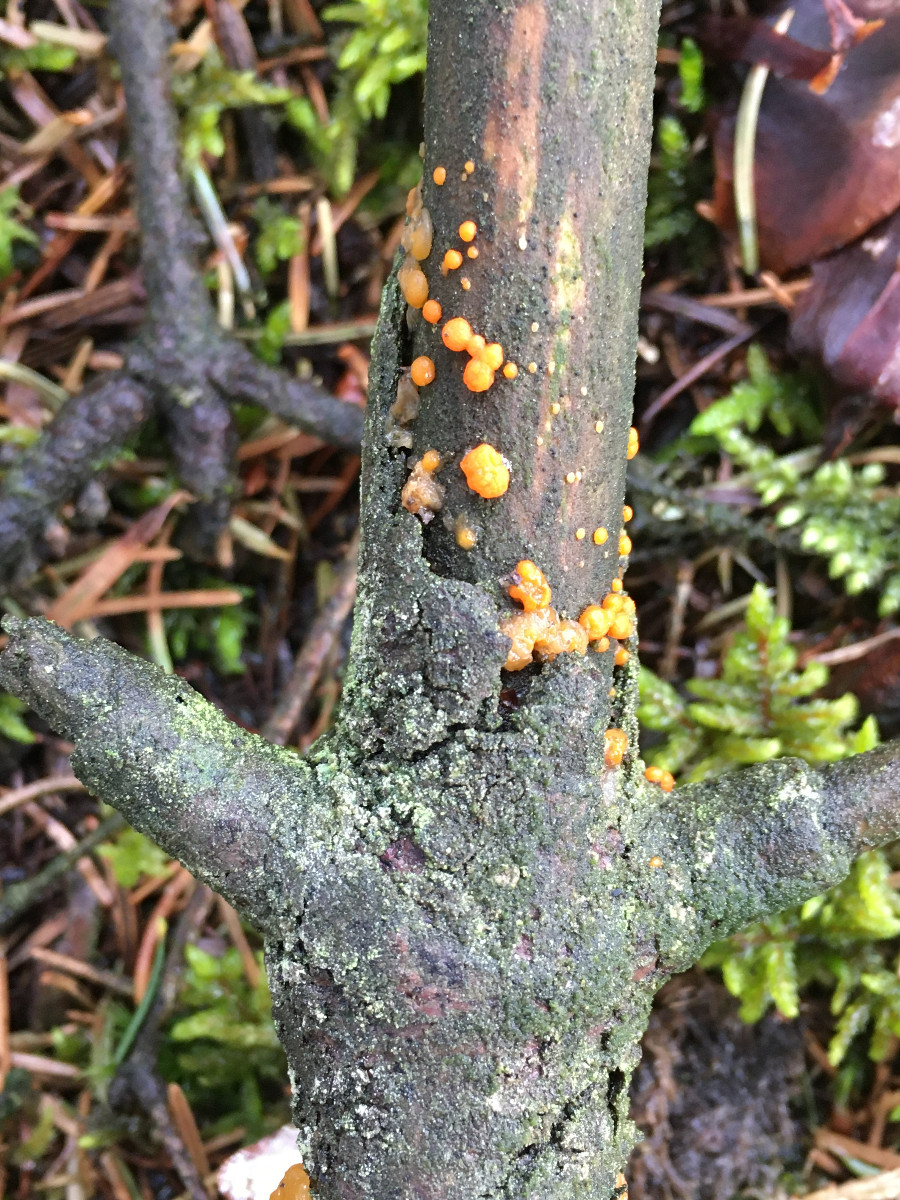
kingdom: Fungi
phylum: Basidiomycota
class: Dacrymycetes
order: Dacrymycetales
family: Dacrymycetaceae
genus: Dacrymyces
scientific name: Dacrymyces stillatus
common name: almindelig tåresvamp
